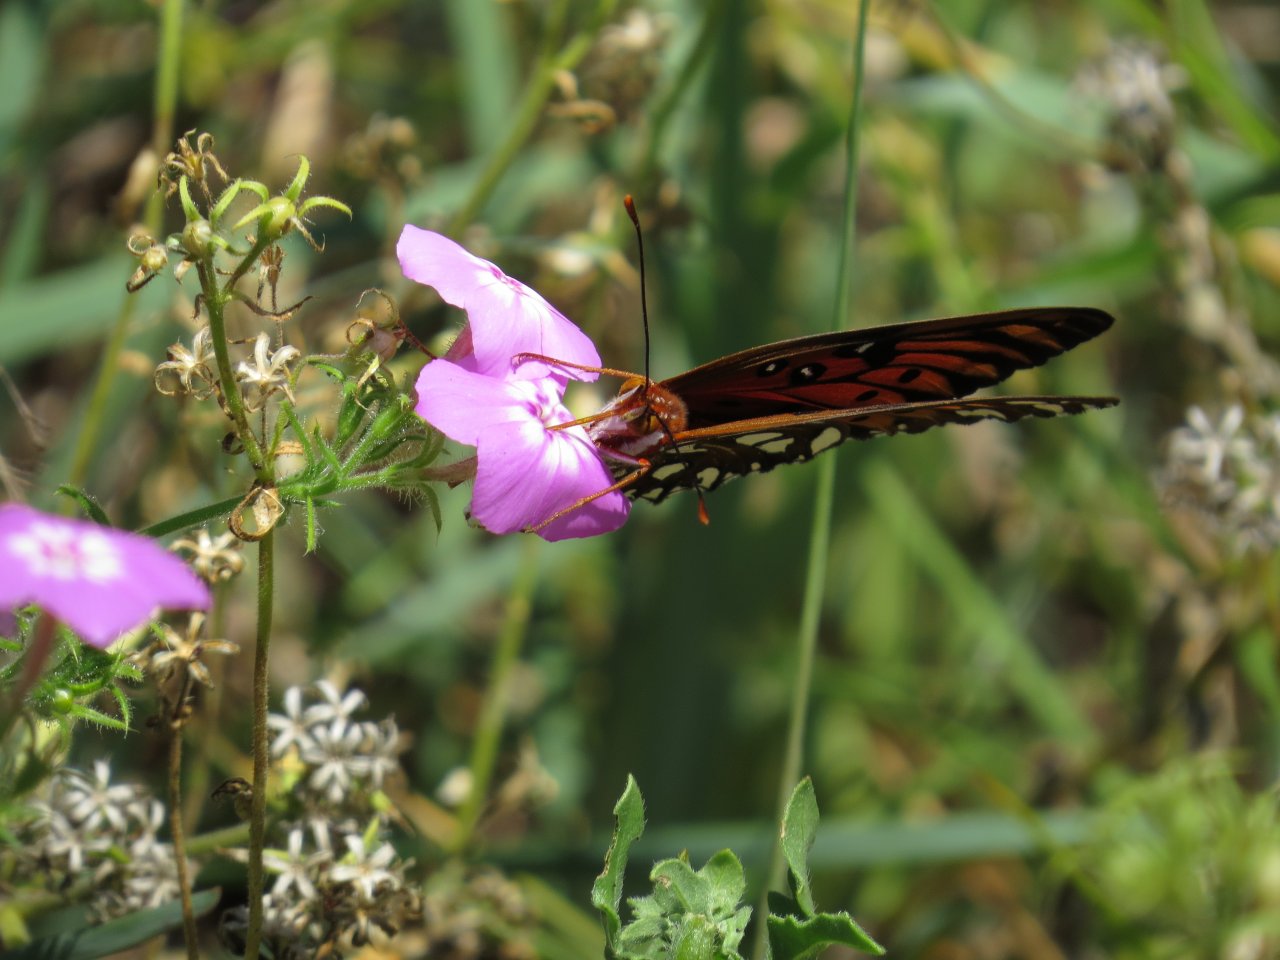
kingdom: Animalia
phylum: Arthropoda
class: Insecta
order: Lepidoptera
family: Nymphalidae
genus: Dione
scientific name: Dione vanillae
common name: Gulf Fritillary
